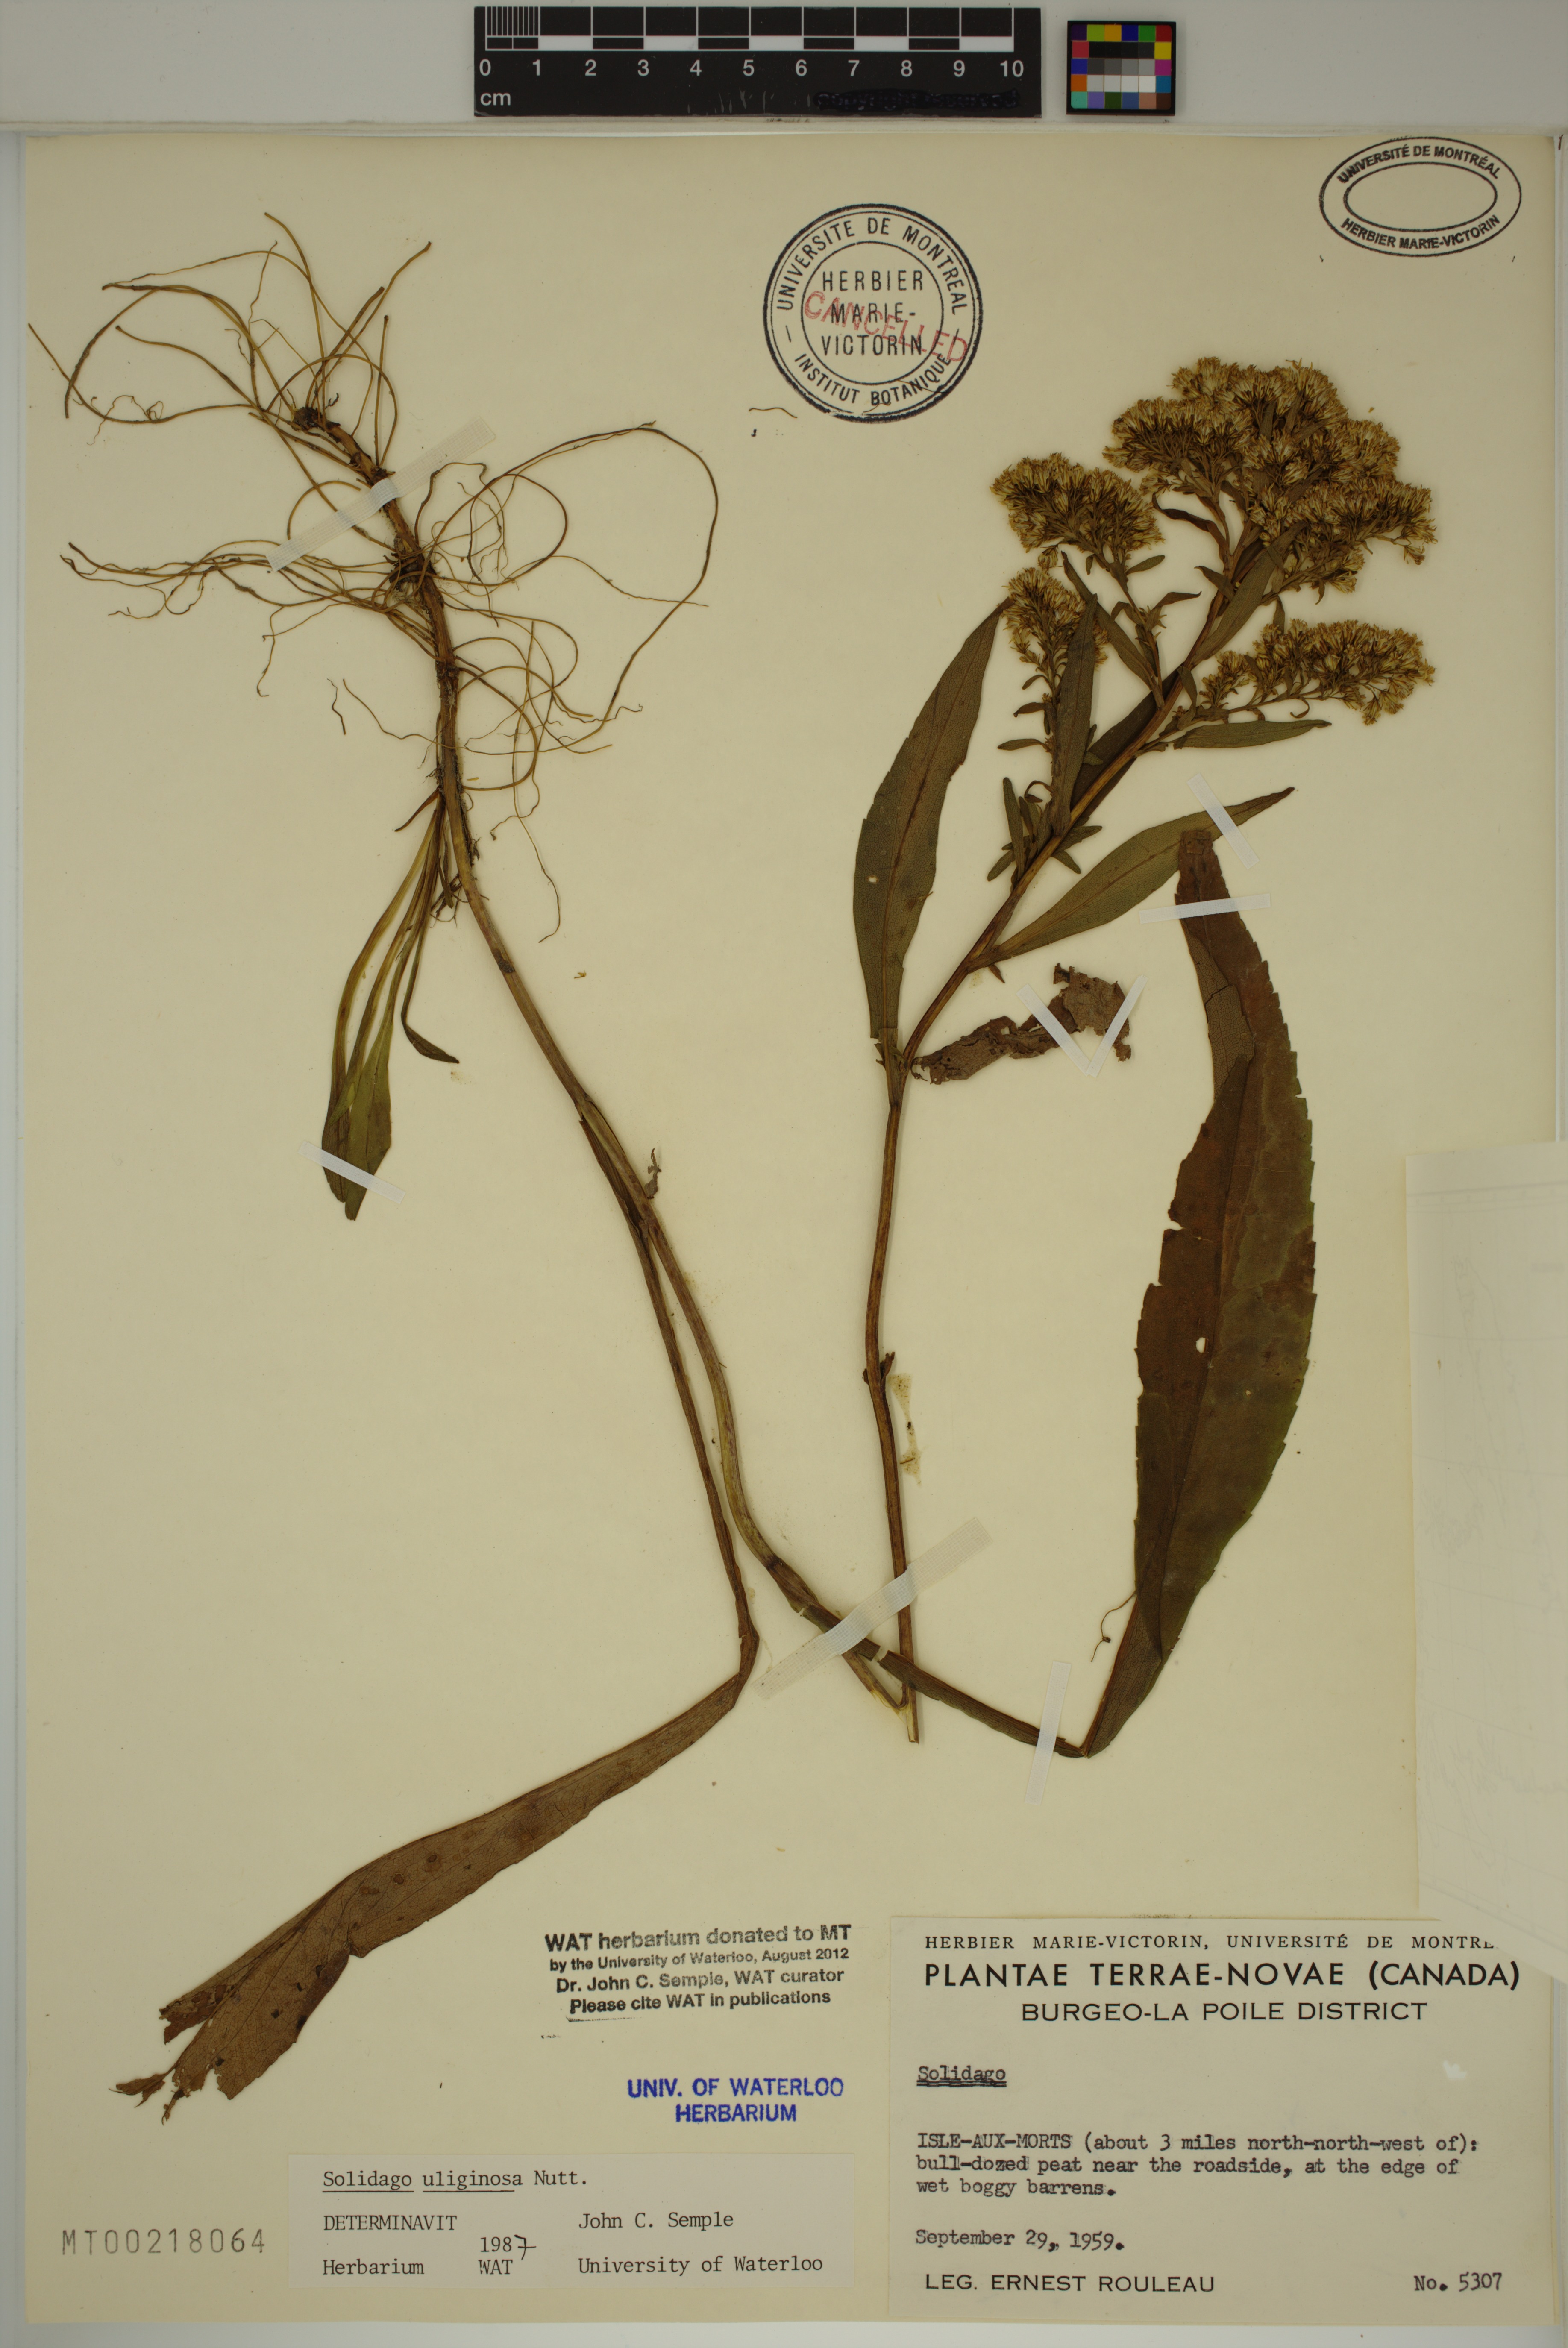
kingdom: Plantae
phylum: Tracheophyta
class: Magnoliopsida
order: Asterales
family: Asteraceae
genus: Solidago
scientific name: Solidago uliginosa
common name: Bog goldenrod
